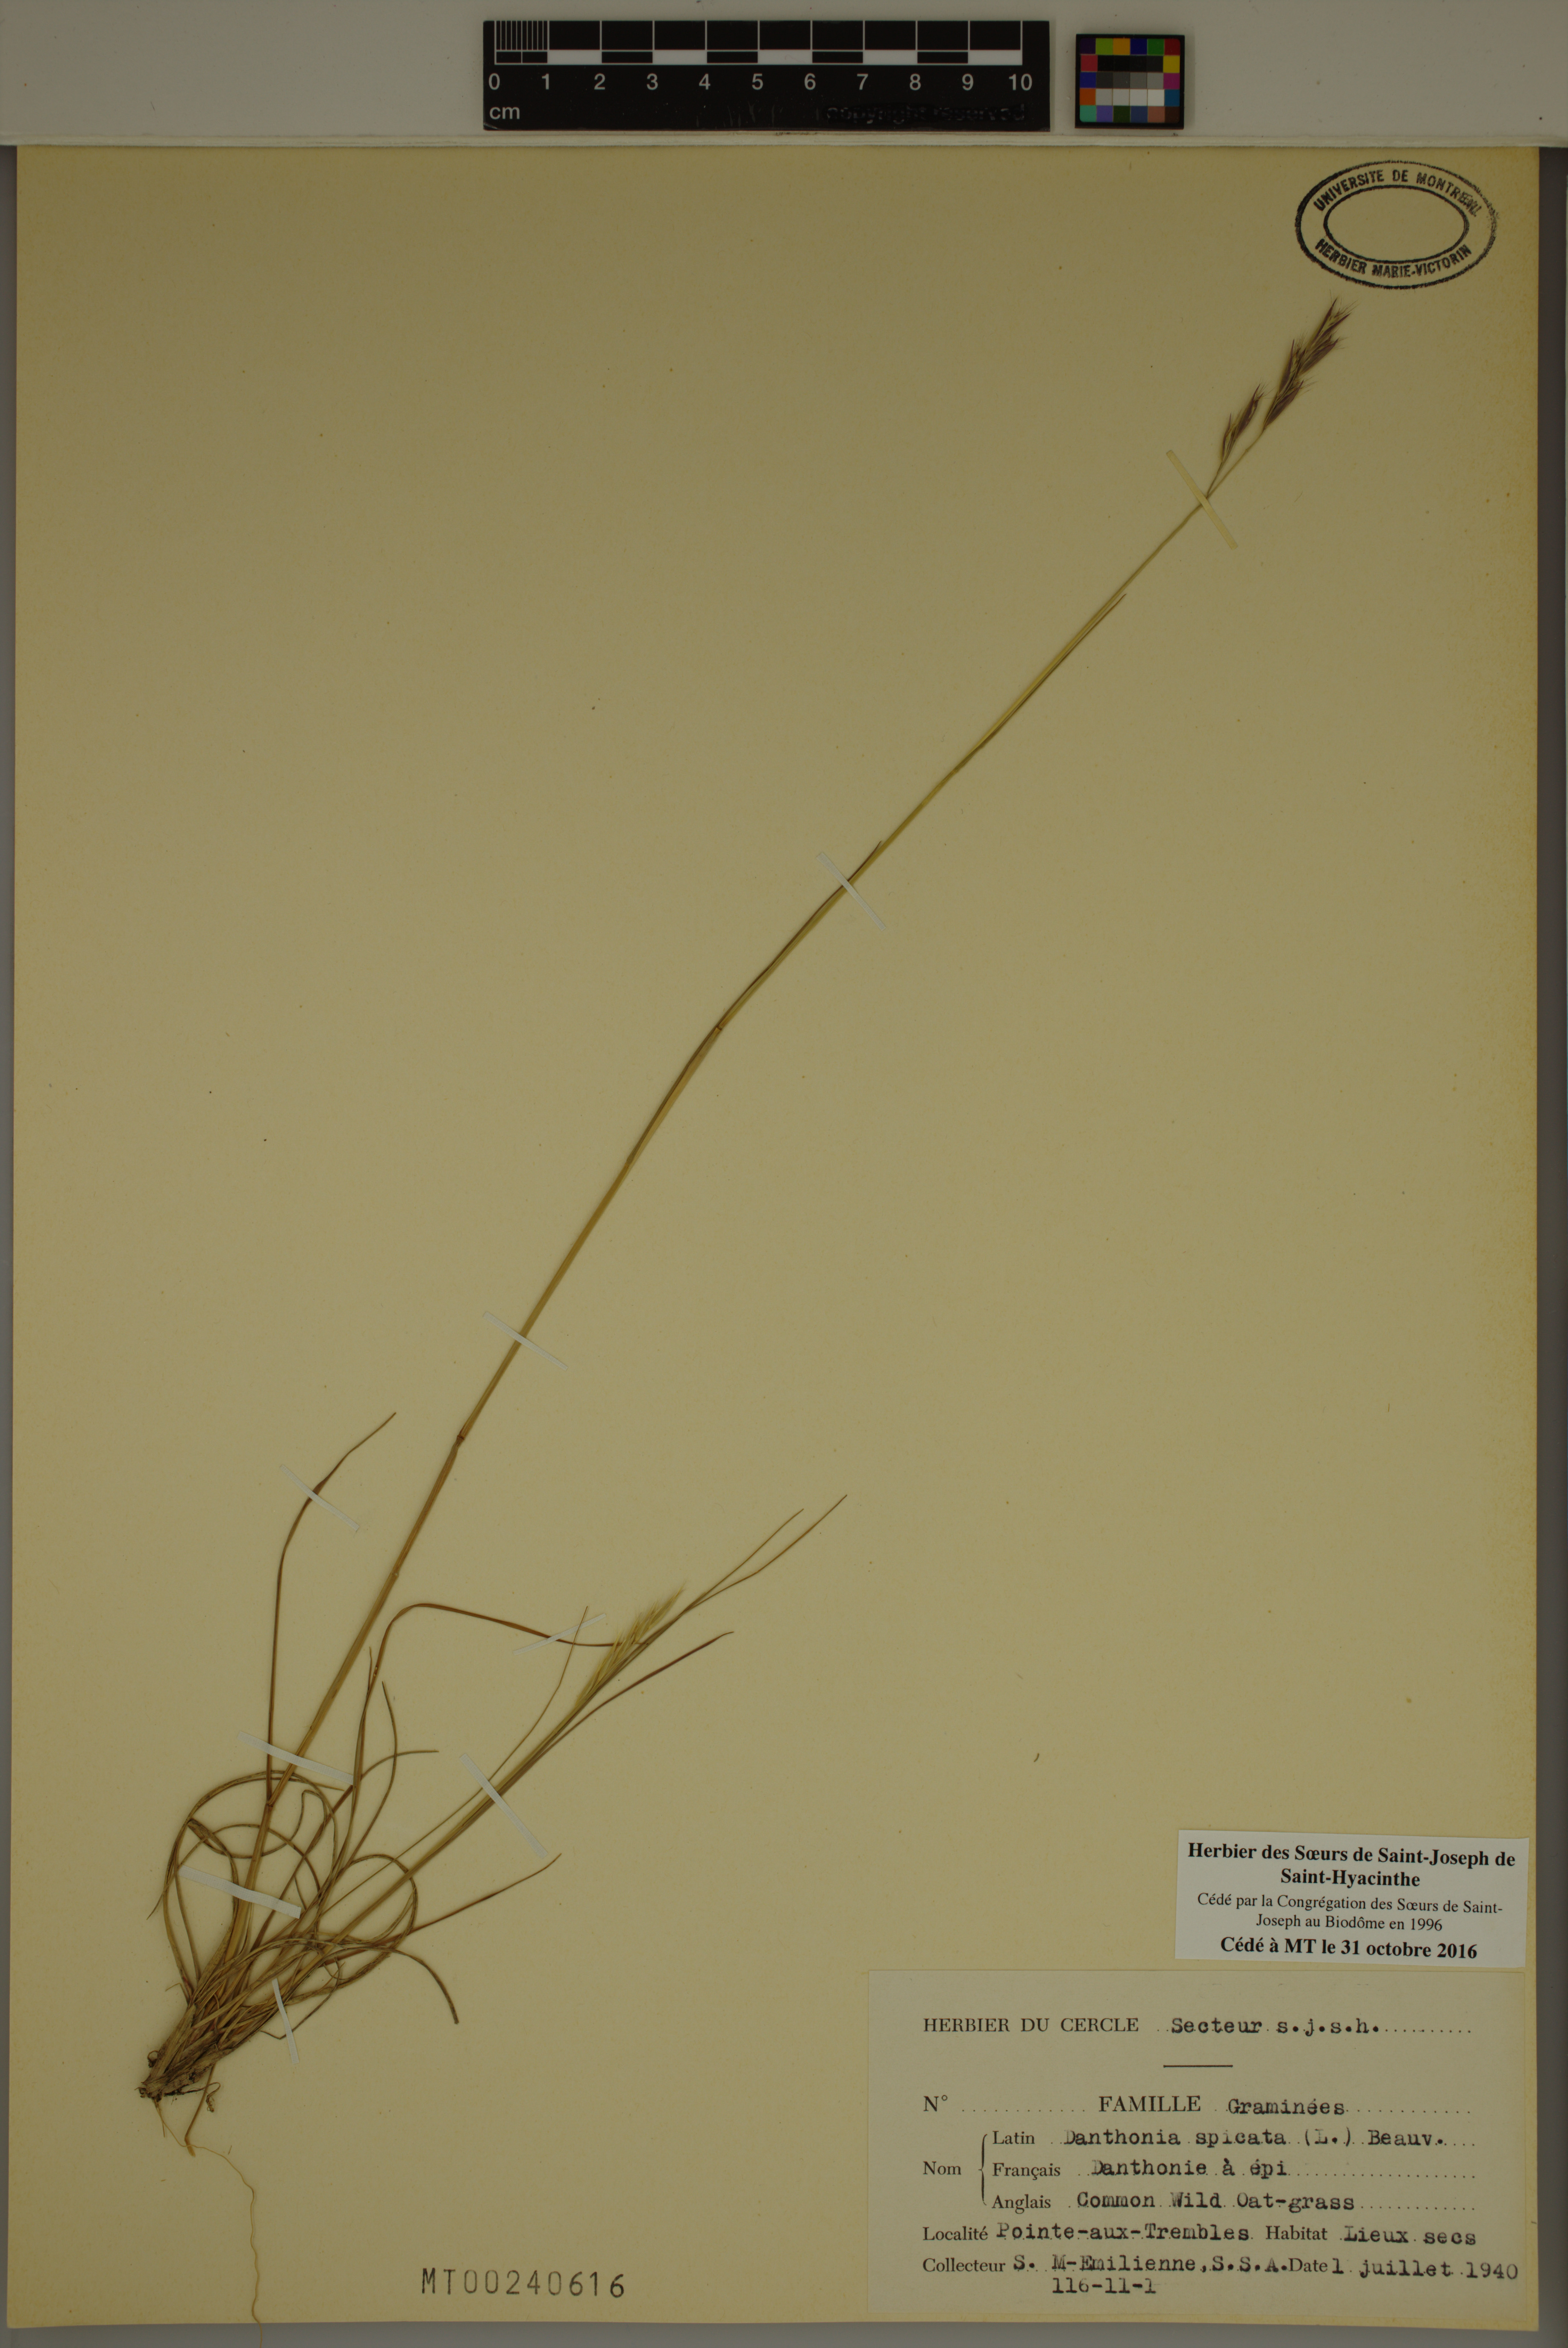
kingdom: Plantae
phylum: Tracheophyta
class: Liliopsida
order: Poales
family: Poaceae
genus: Danthonia
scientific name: Danthonia spicata
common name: Common wild oatgrass
